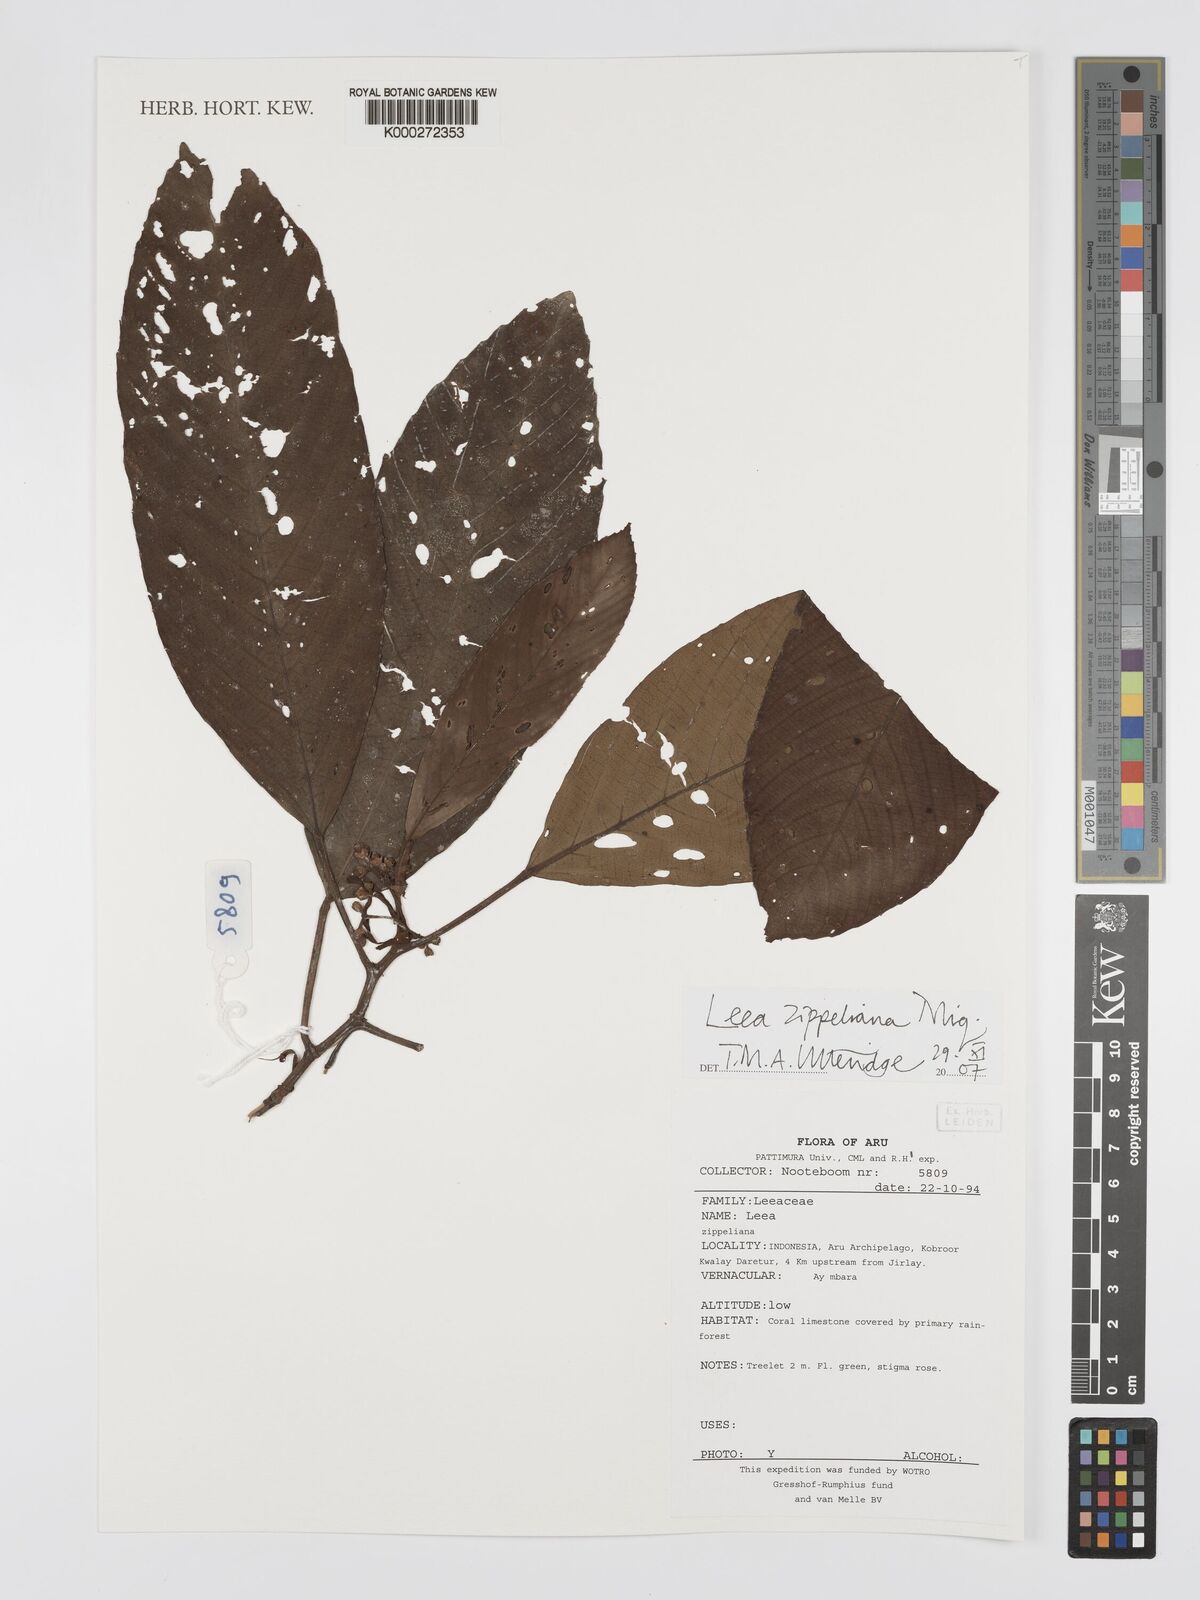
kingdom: Plantae
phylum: Tracheophyta
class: Magnoliopsida
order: Vitales
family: Vitaceae
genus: Leea
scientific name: Leea zippeliana
